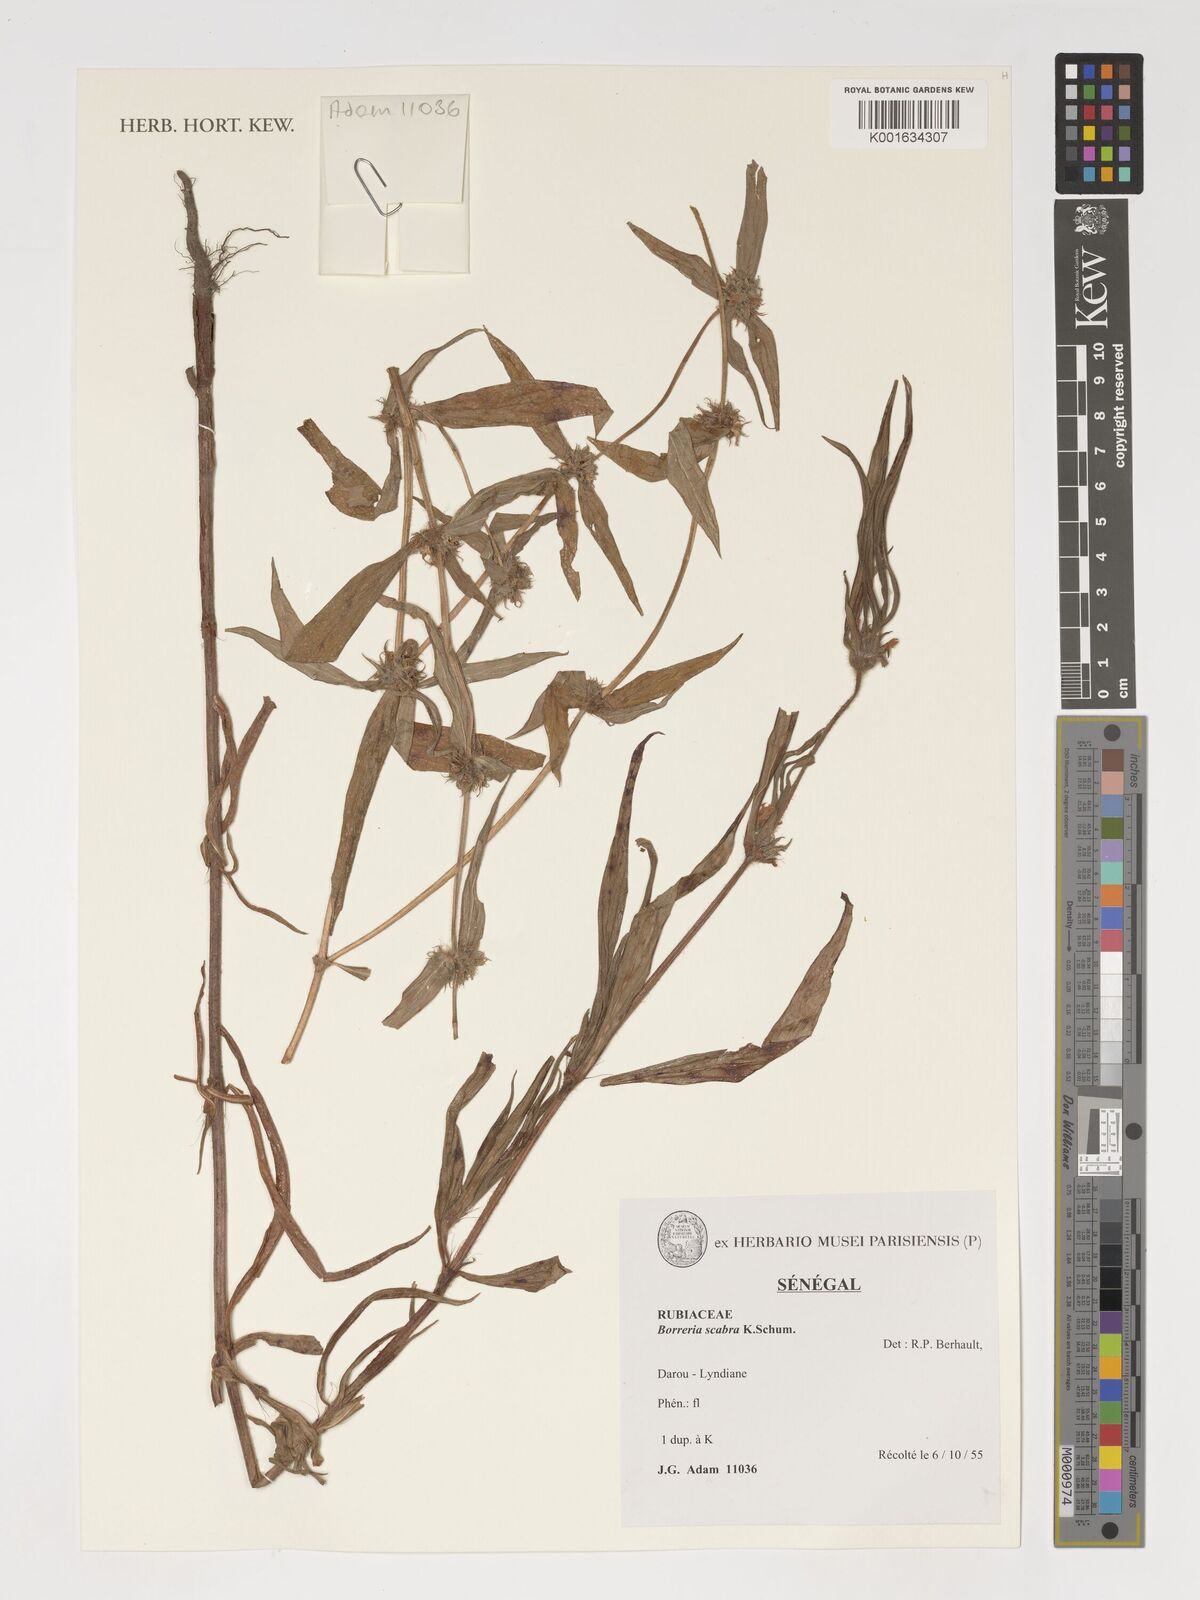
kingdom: Plantae
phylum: Tracheophyta
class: Magnoliopsida
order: Gentianales
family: Rubiaceae
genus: Spermacoce
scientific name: Spermacoce ruelliae
